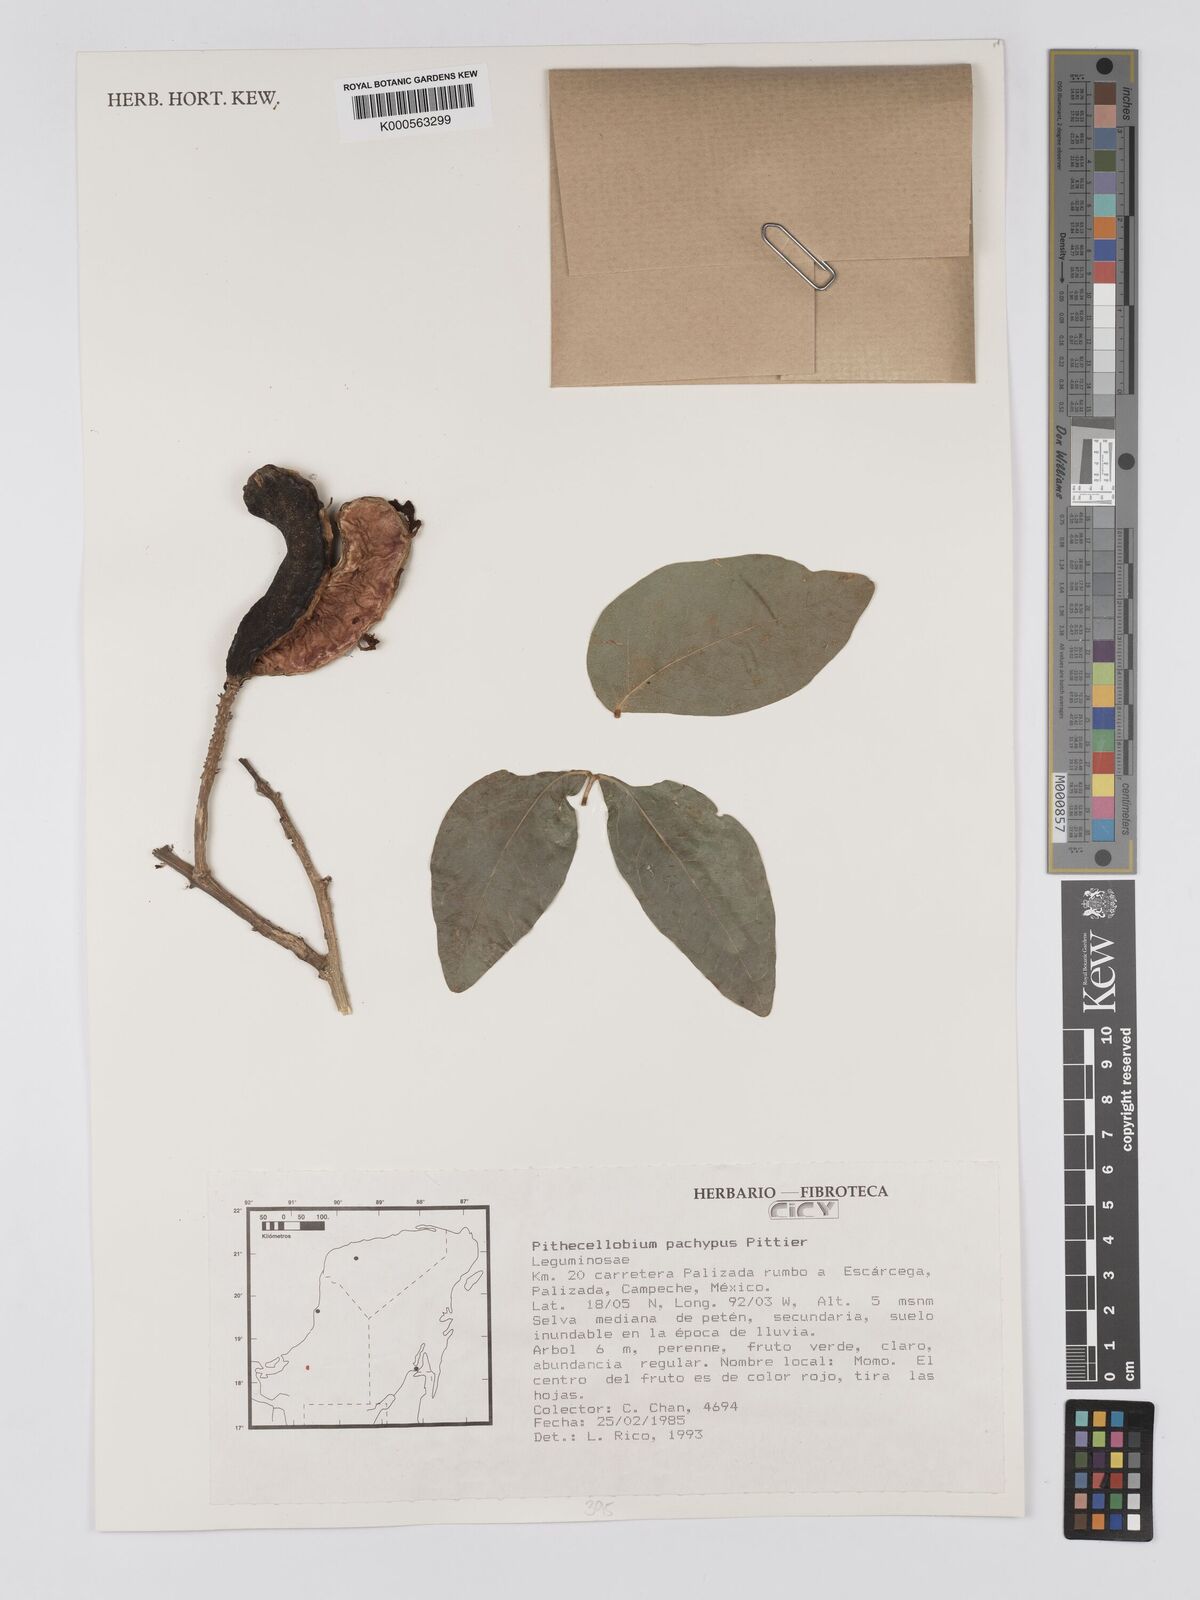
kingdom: Plantae
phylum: Tracheophyta
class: Magnoliopsida
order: Fabales
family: Fabaceae
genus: Pithecellobium
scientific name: Pithecellobium lanceolatum
